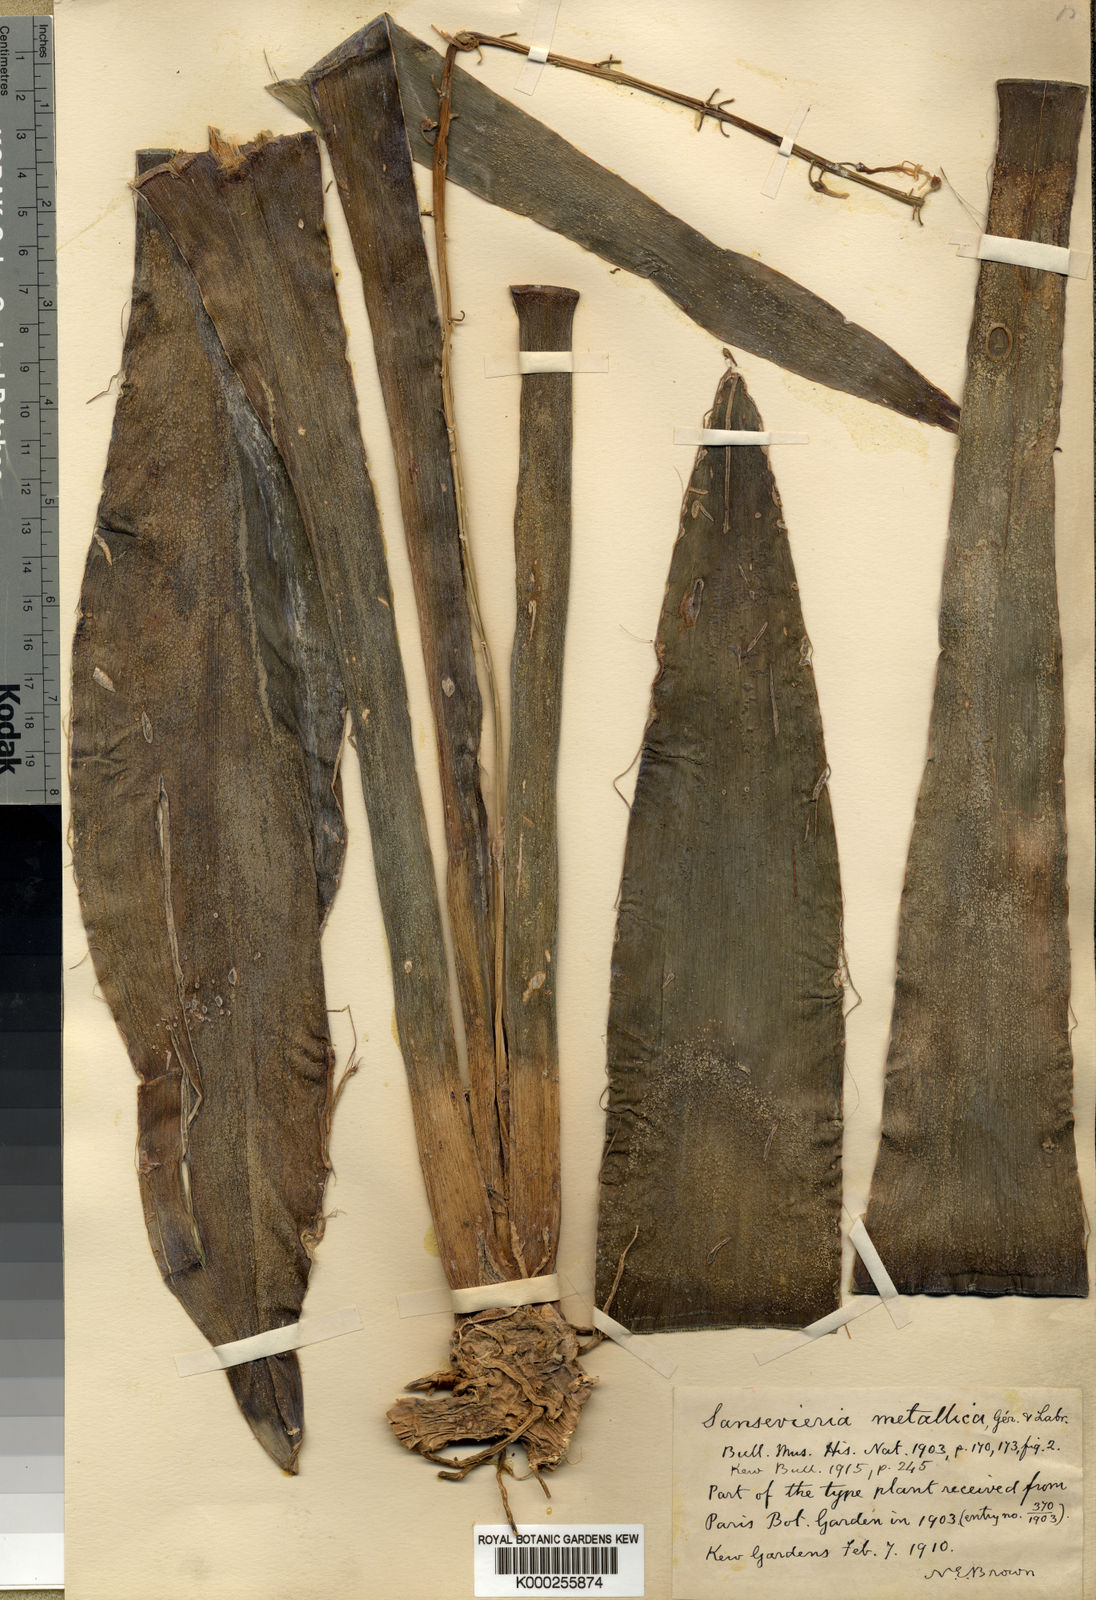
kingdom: Plantae
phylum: Tracheophyta
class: Liliopsida
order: Asparagales
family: Asparagaceae
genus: Dracaena
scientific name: Dracaena zebra
